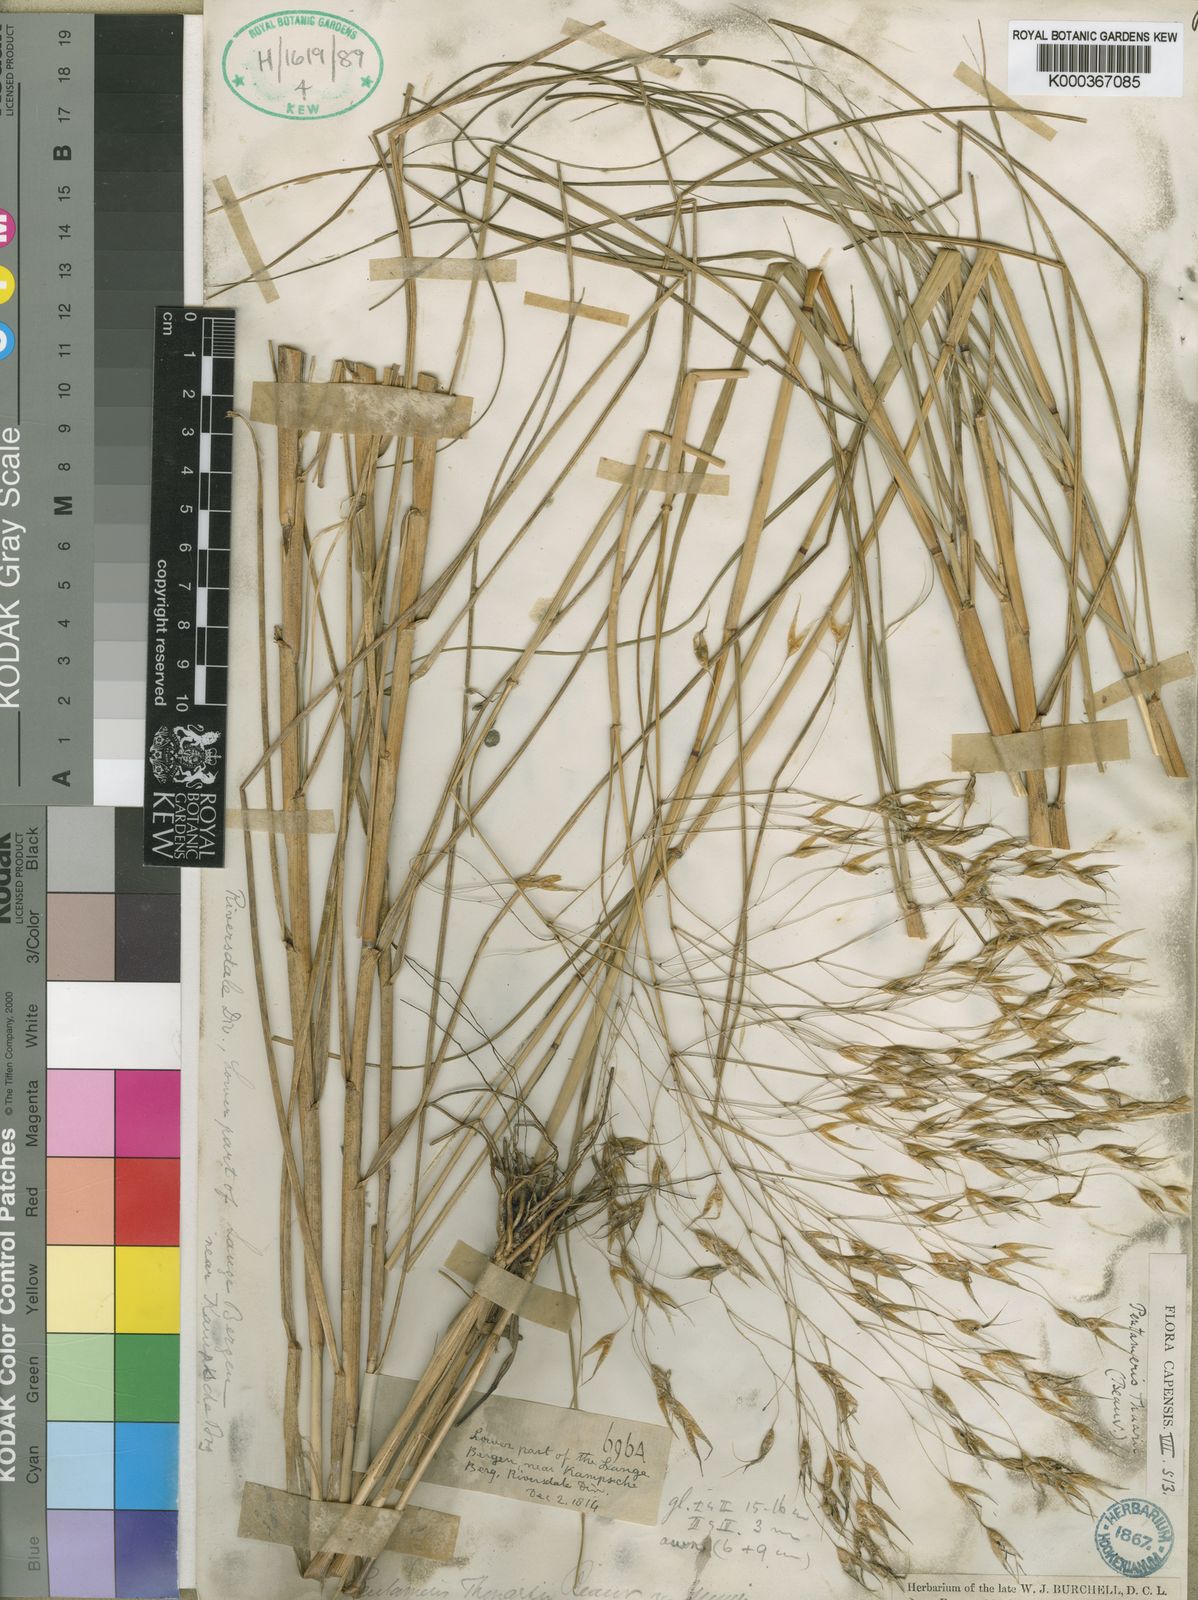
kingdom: Plantae
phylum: Tracheophyta
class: Liliopsida
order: Poales
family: Poaceae
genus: Pentameris
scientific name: Pentameris thuarii
